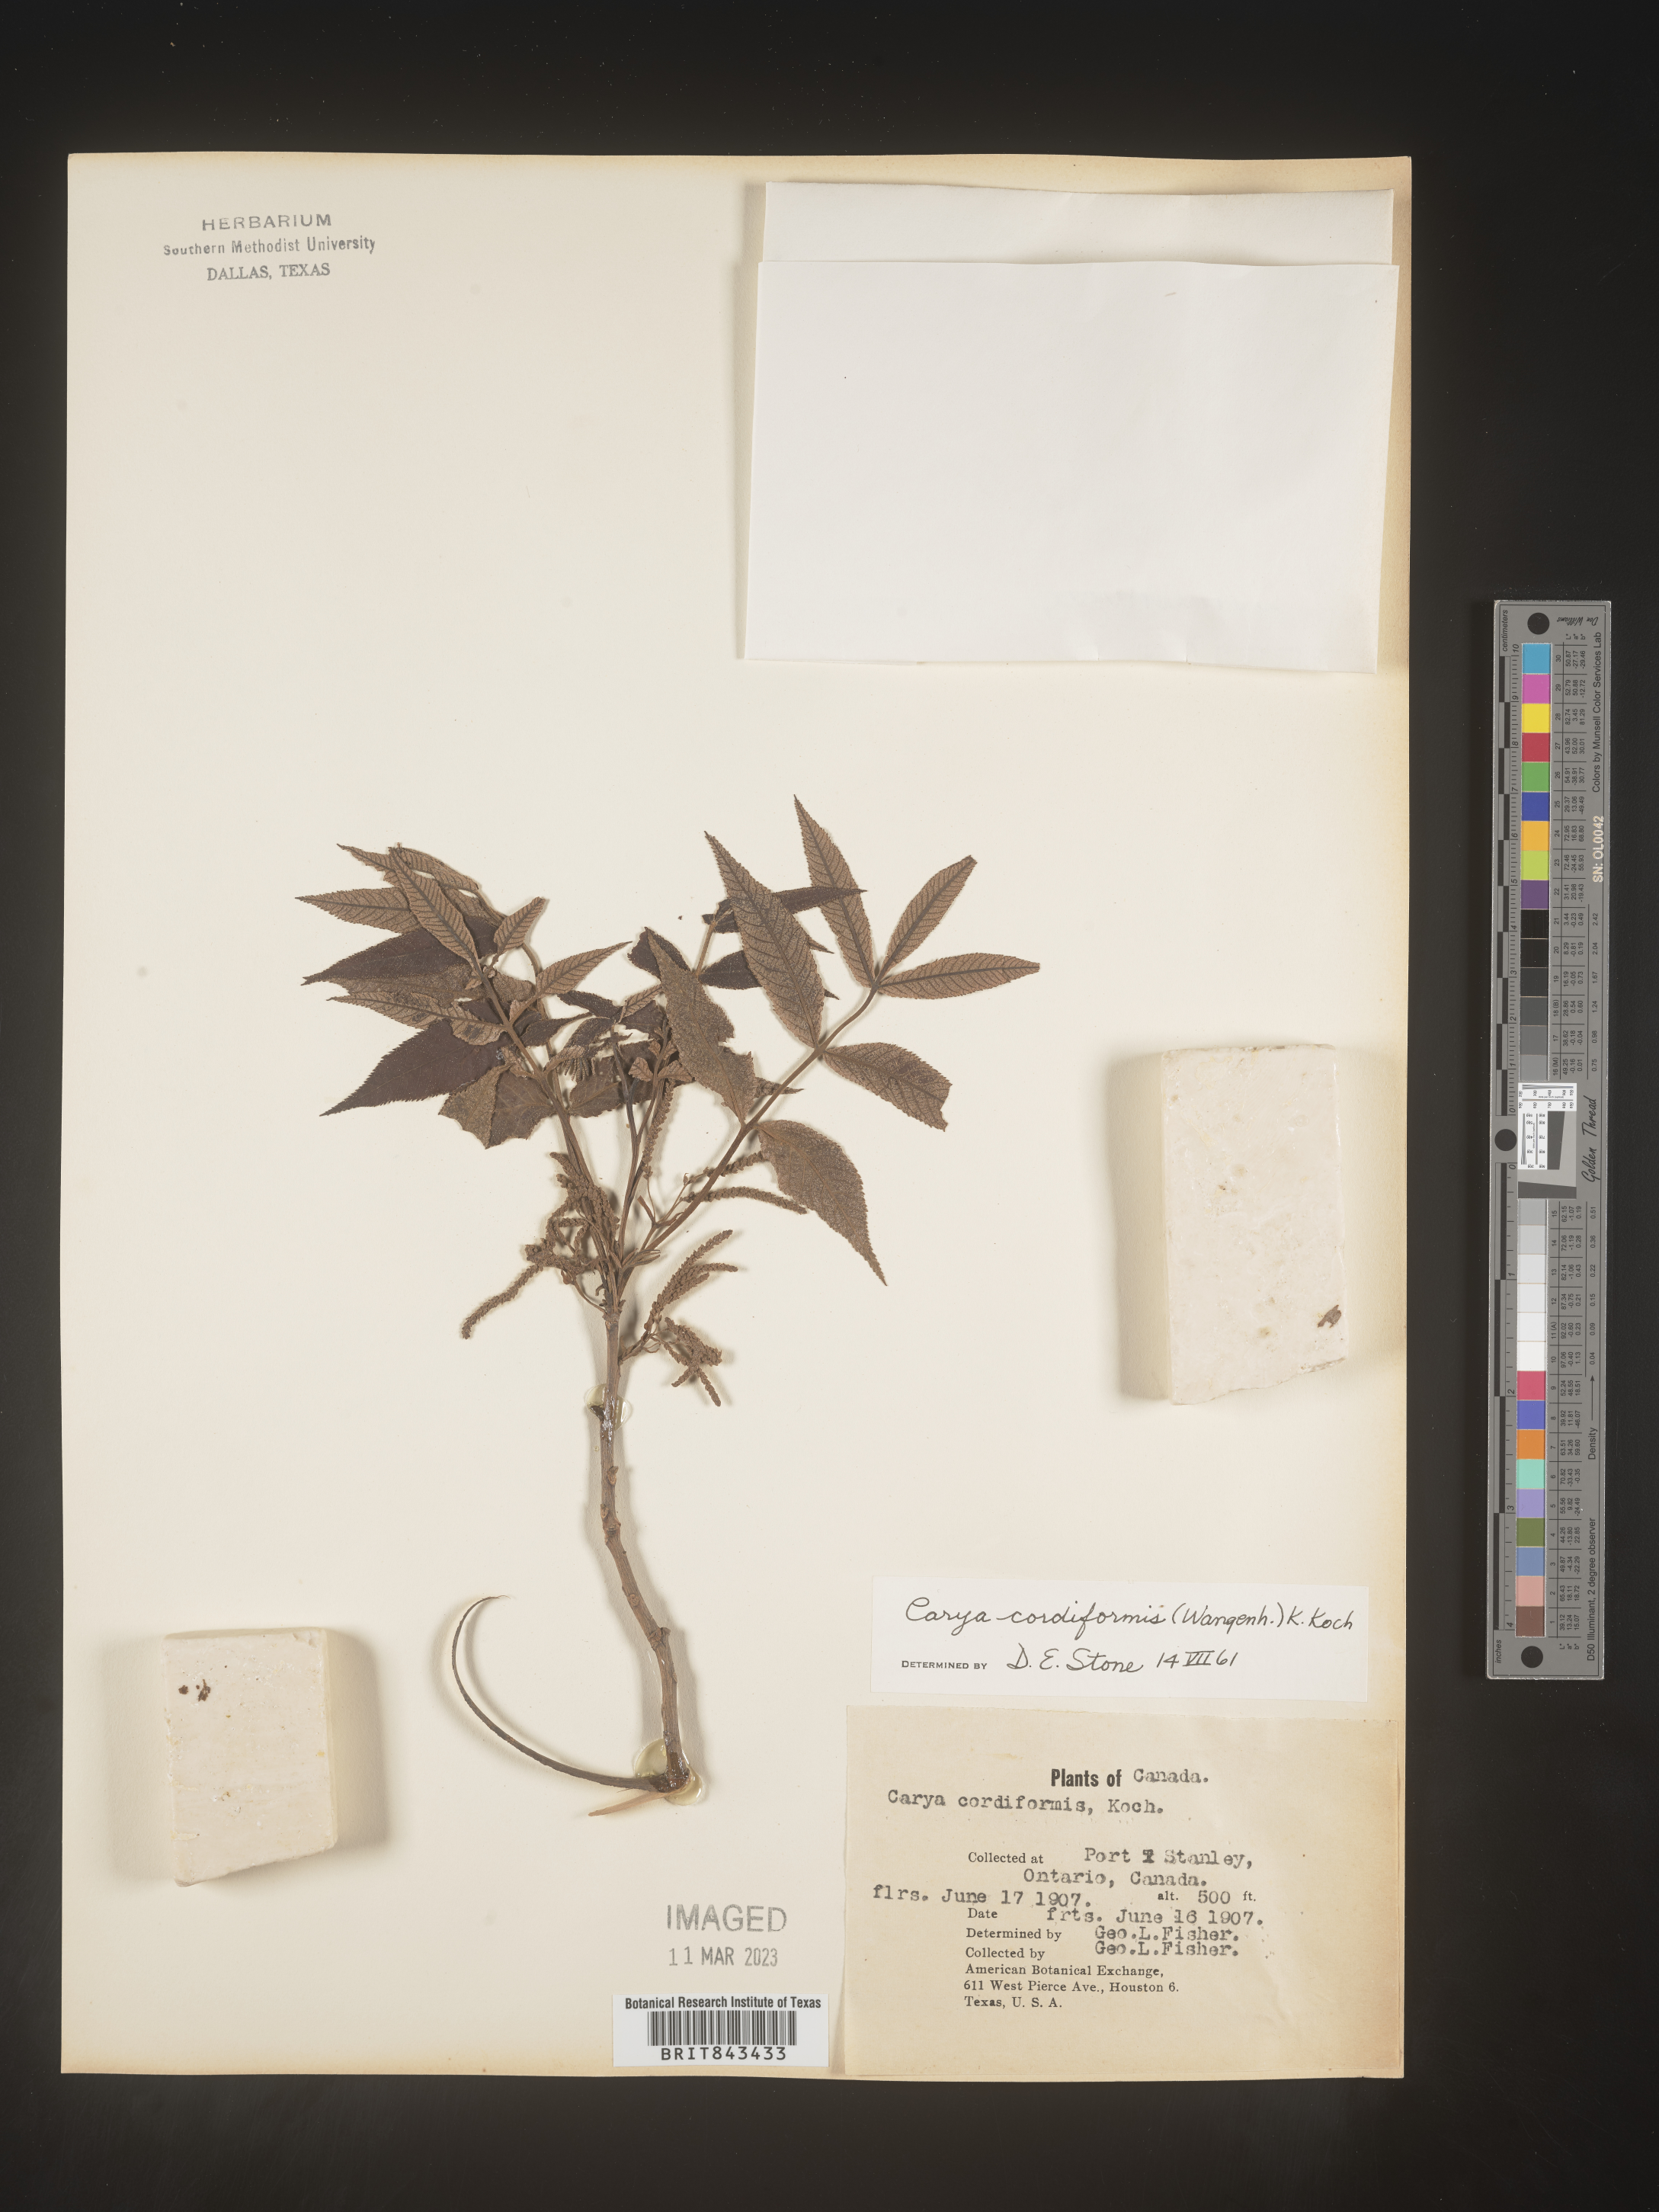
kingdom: Plantae
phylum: Tracheophyta
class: Magnoliopsida
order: Fagales
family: Juglandaceae
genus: Carya
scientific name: Carya cordiformis
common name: Bitternut hickory
